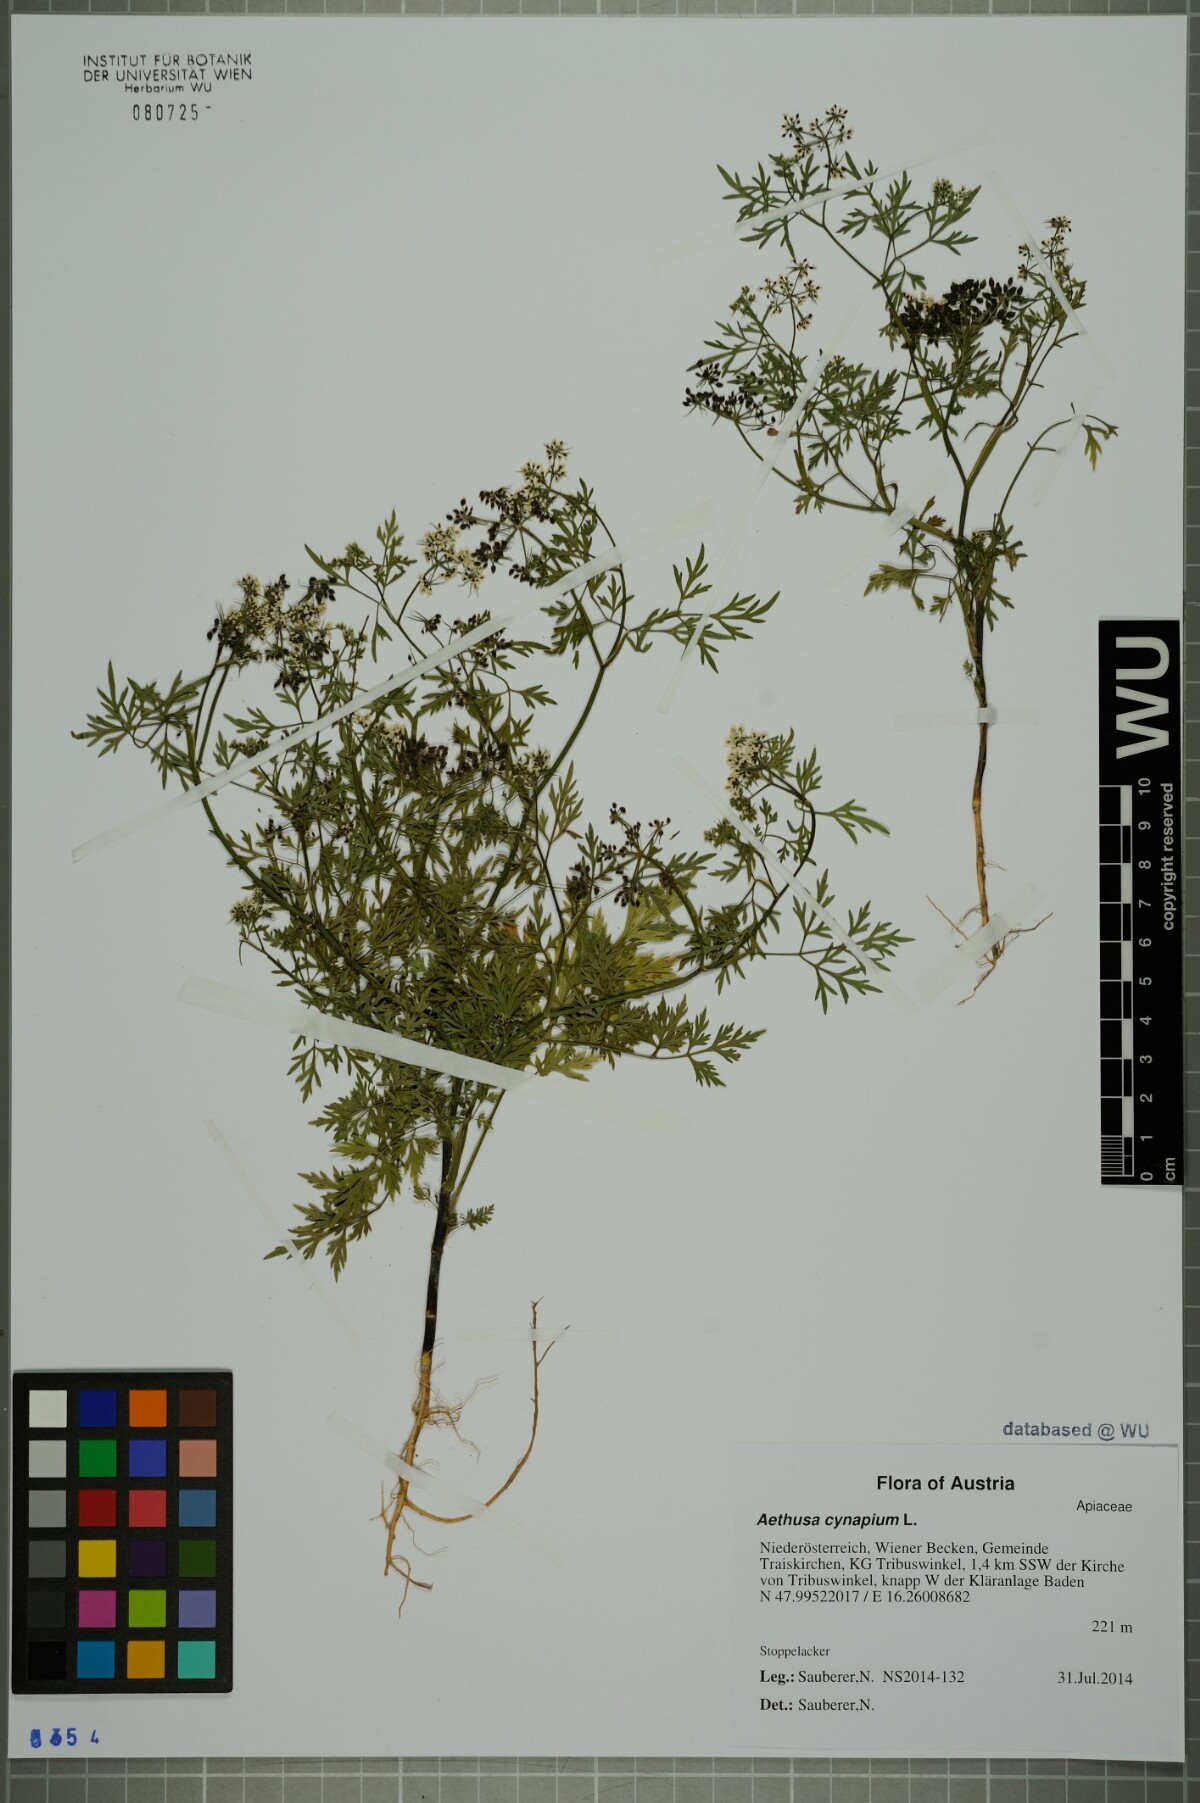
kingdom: Plantae
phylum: Tracheophyta
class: Magnoliopsida
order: Apiales
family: Apiaceae
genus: Aethusa
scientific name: Aethusa cynapium
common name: Fool's parsley
